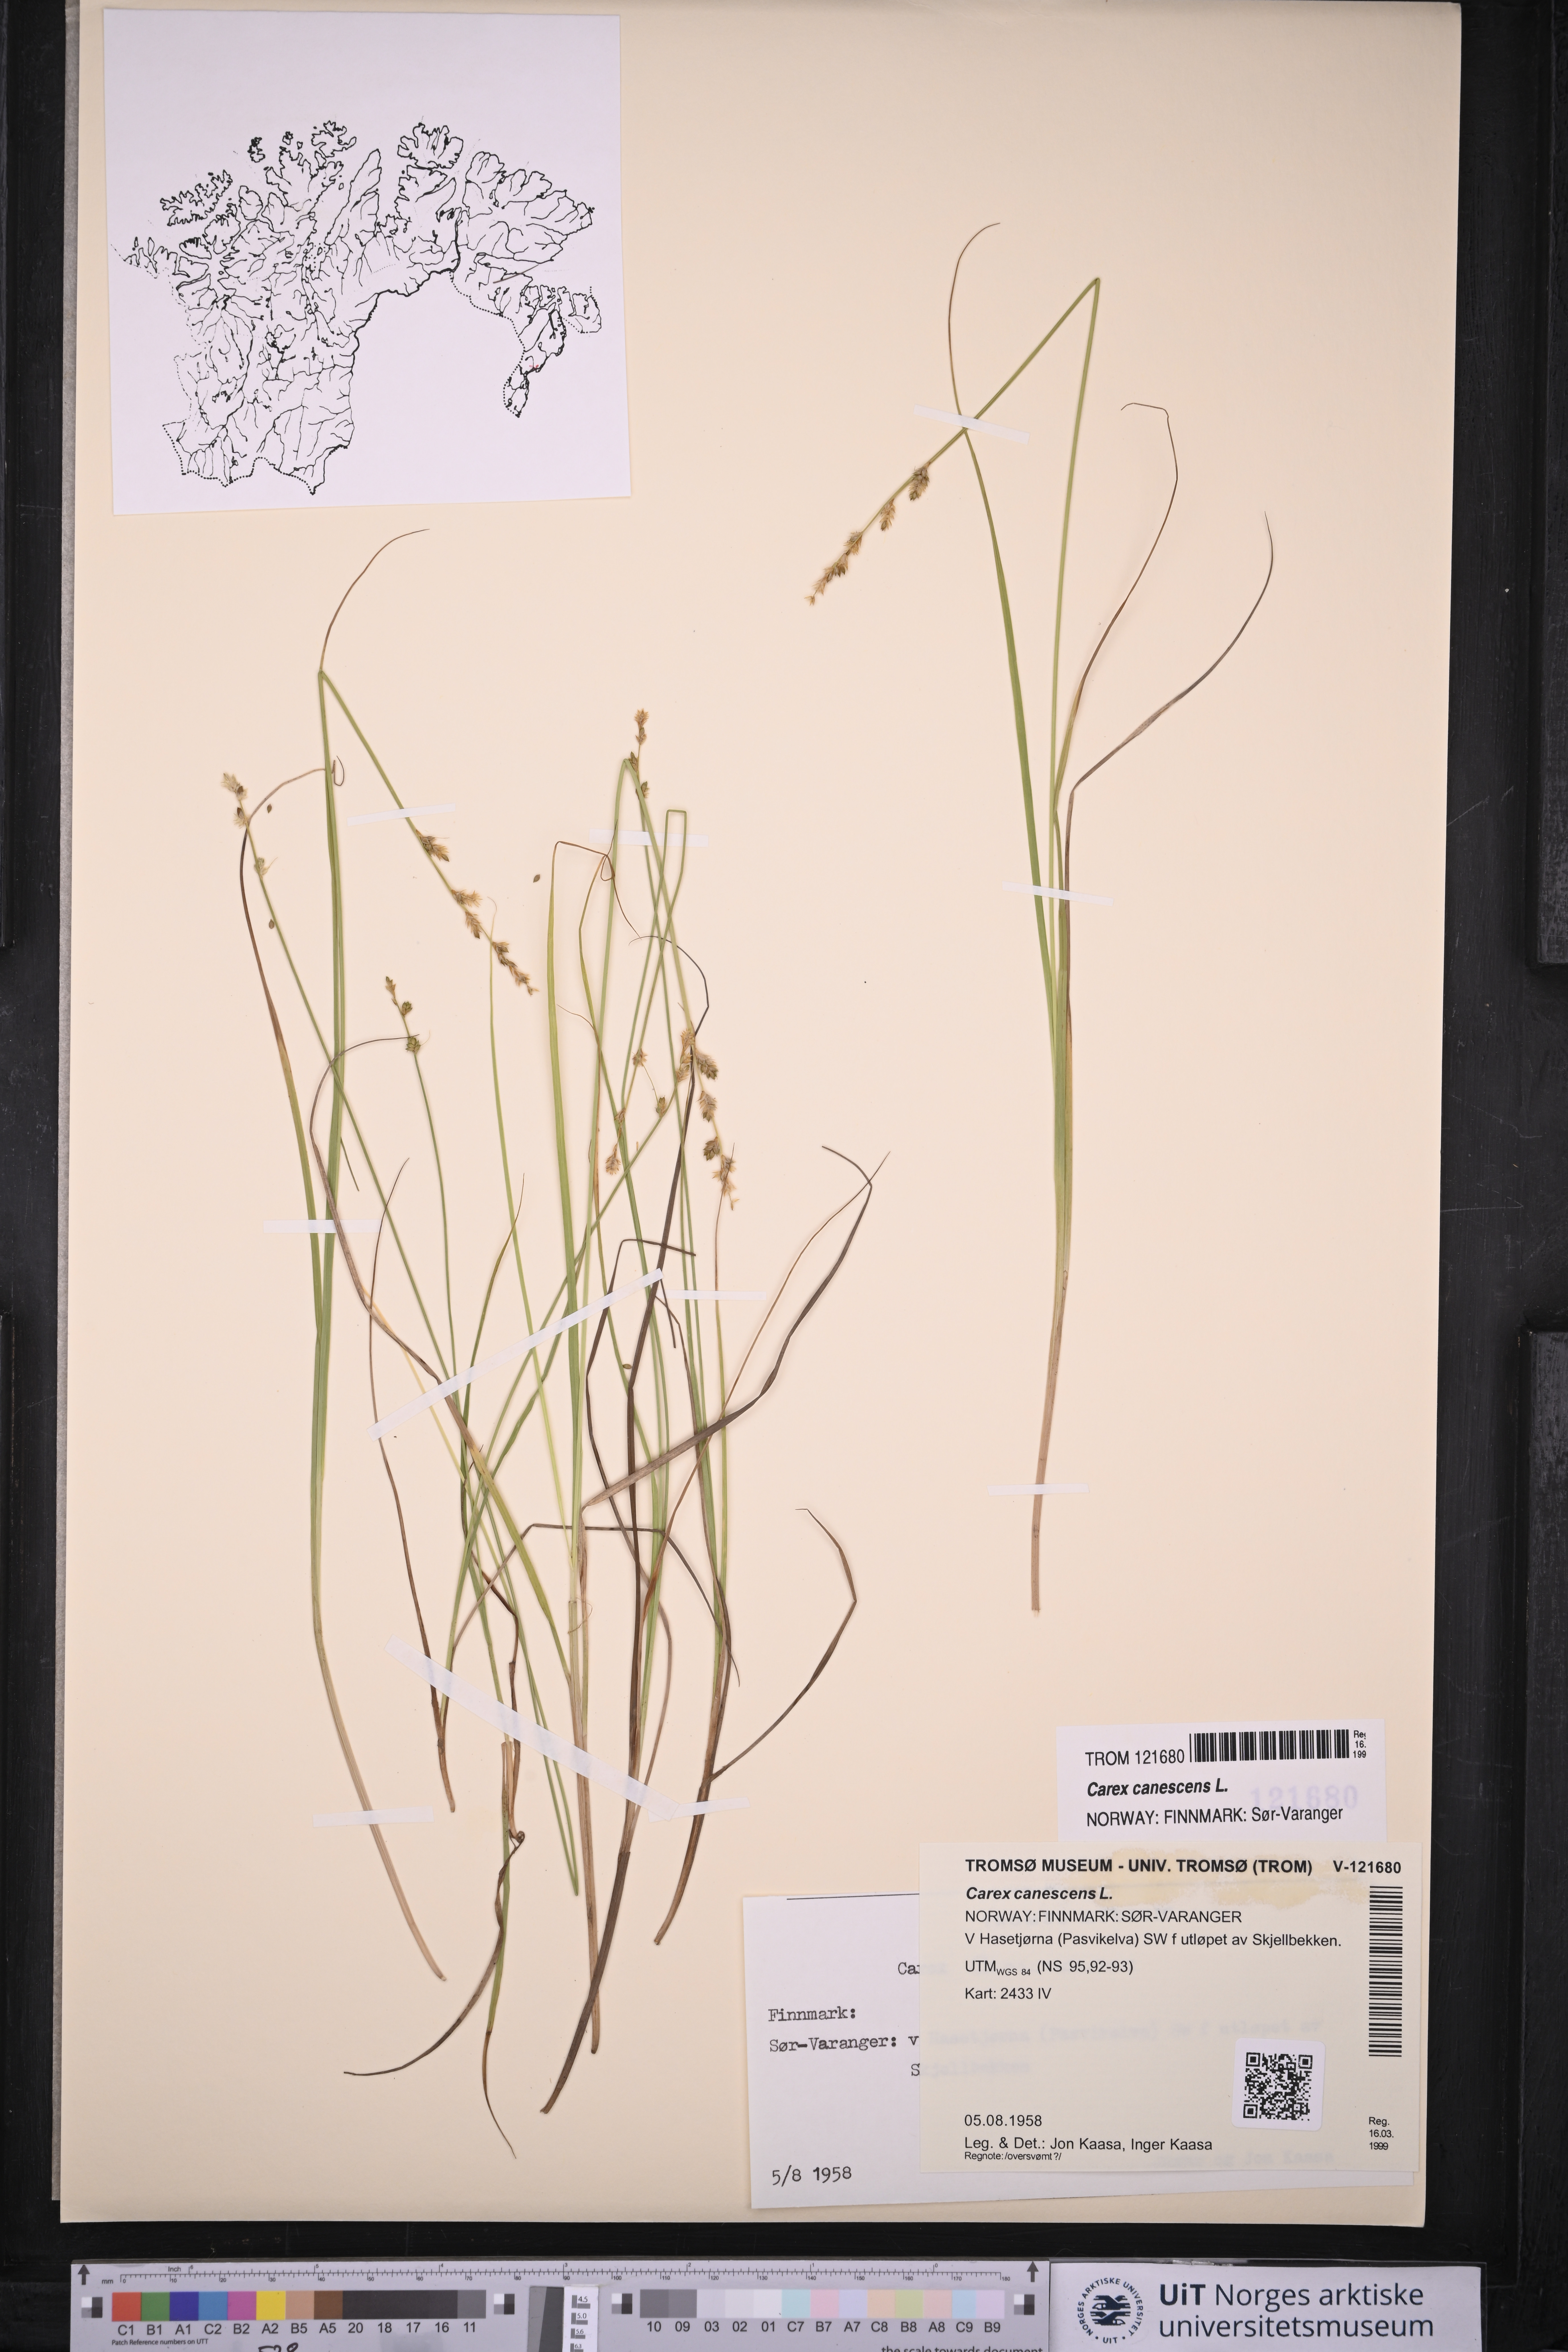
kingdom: Plantae
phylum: Tracheophyta
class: Liliopsida
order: Poales
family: Cyperaceae
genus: Carex
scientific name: Carex canescens
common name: White sedge
